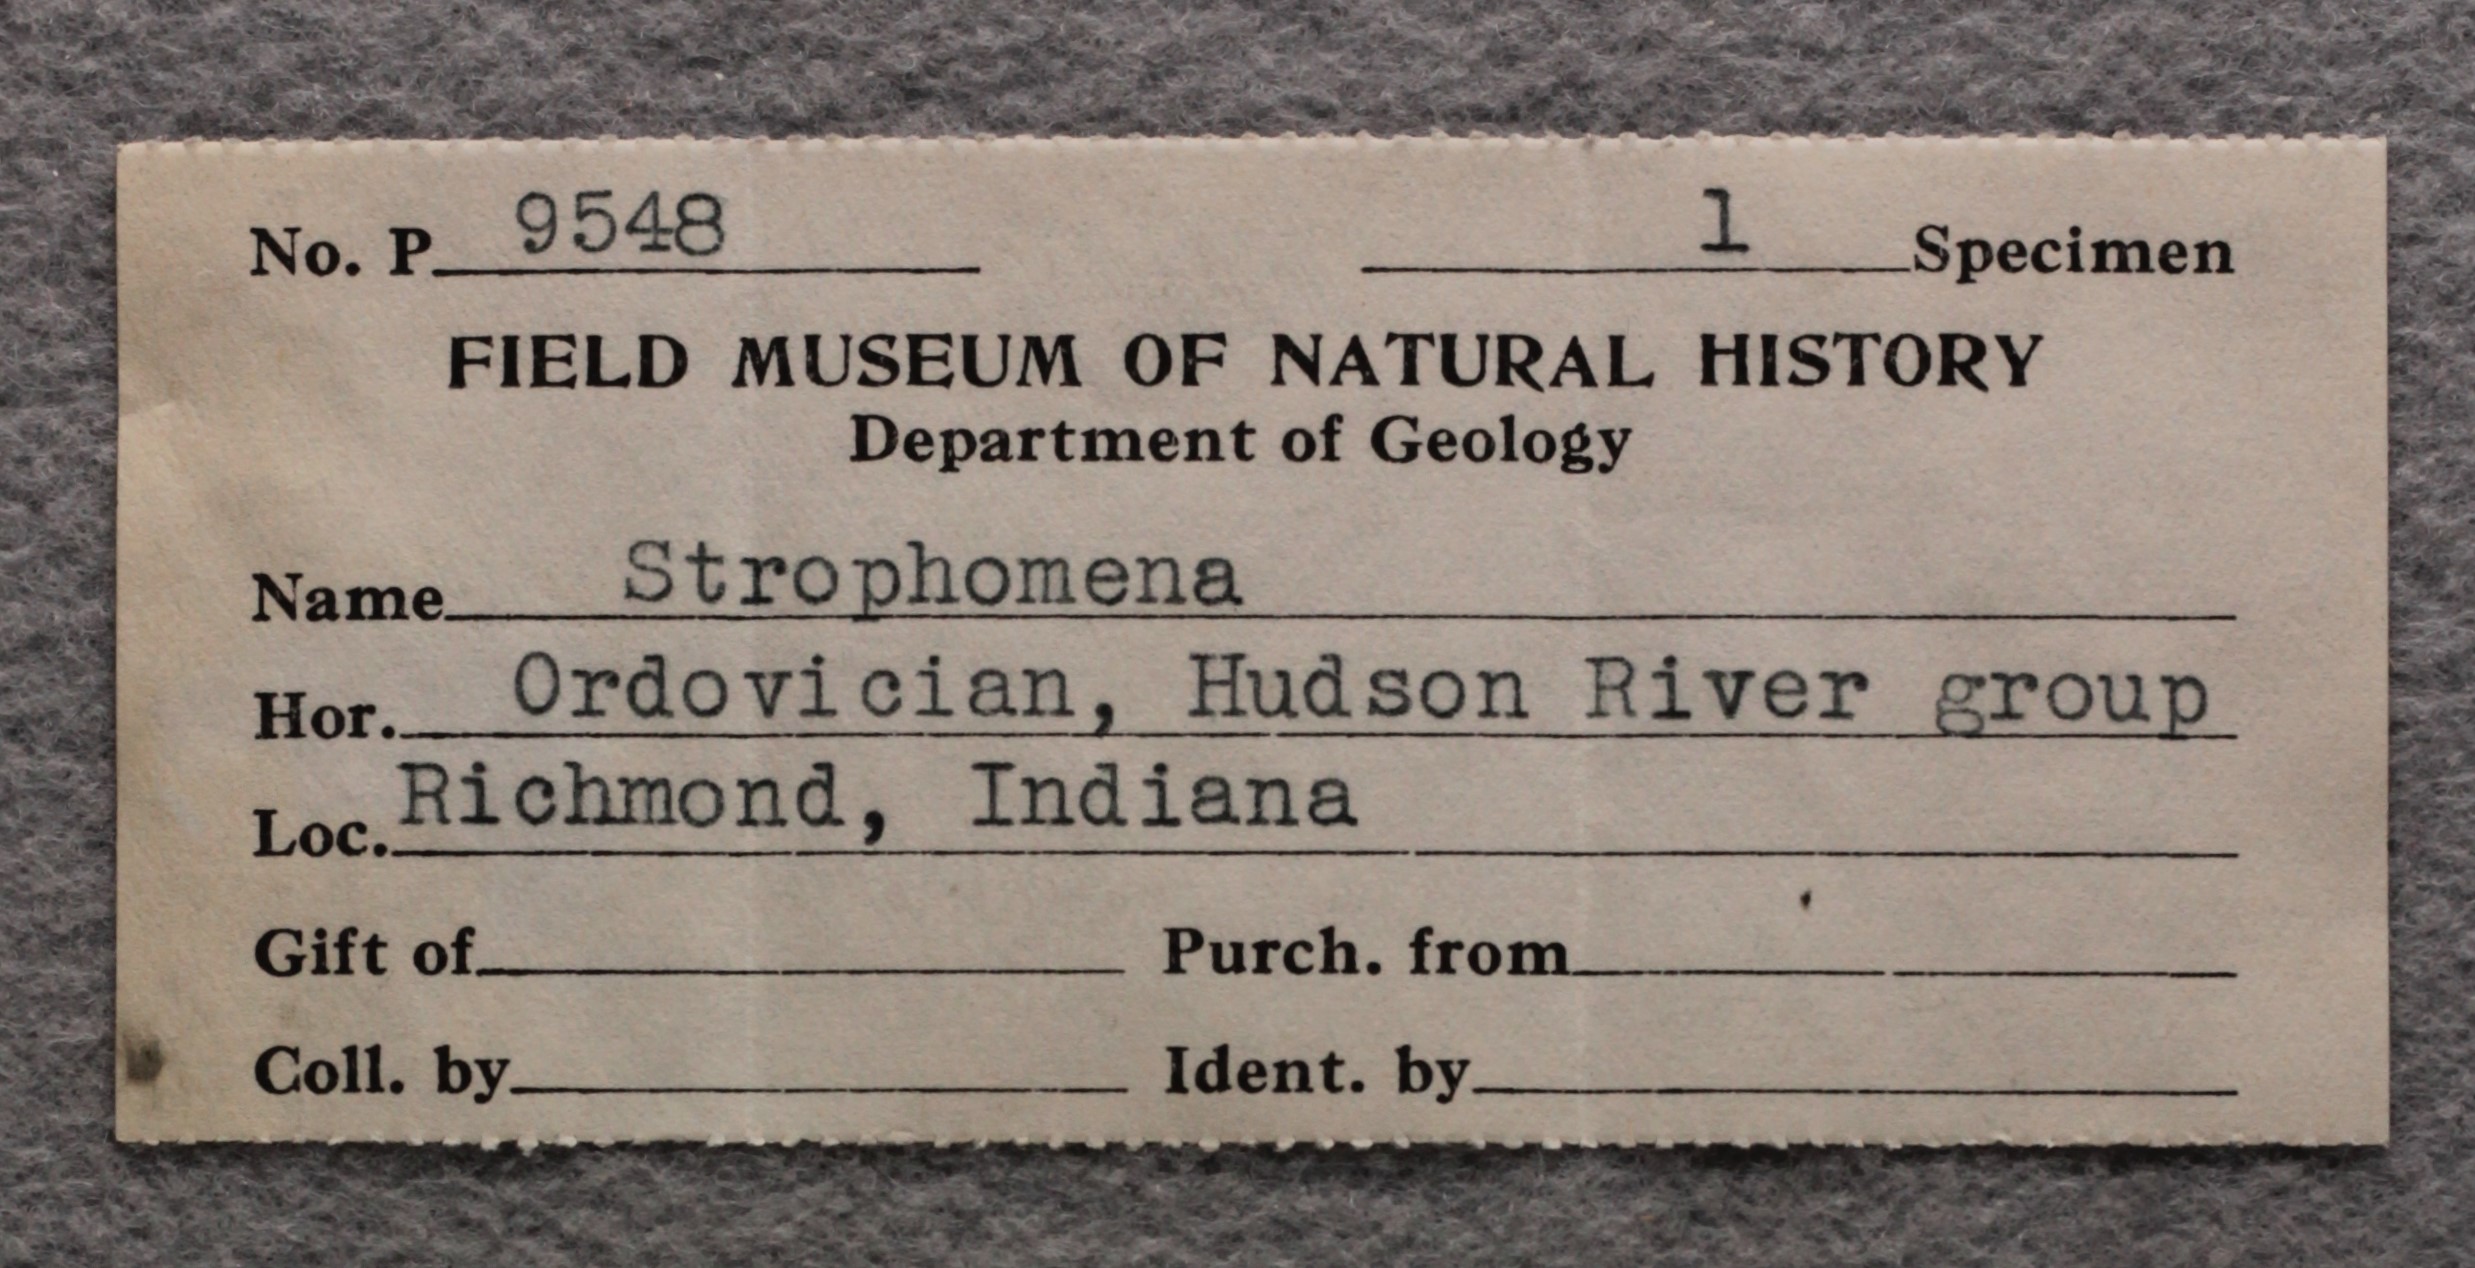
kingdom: Animalia
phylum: Brachiopoda
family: Strophomenidae
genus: Strophomena
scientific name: Strophomena
